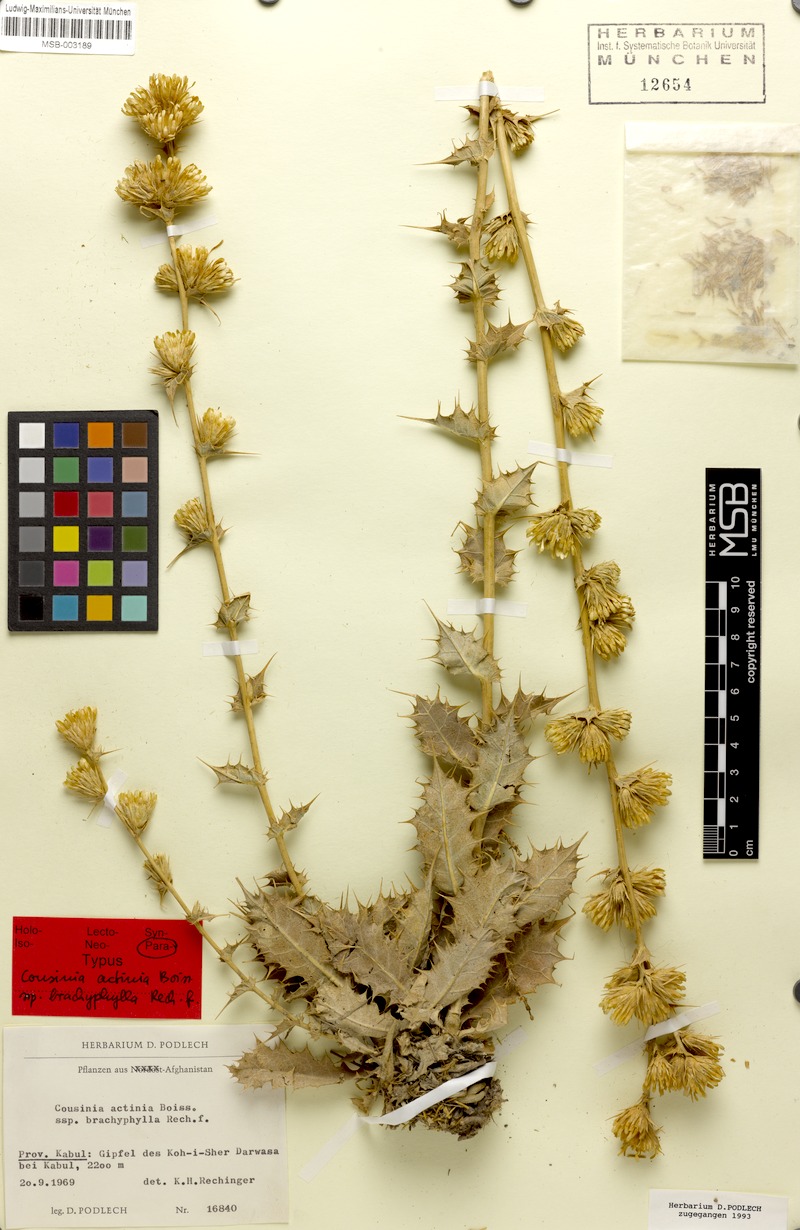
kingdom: Plantae
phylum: Tracheophyta
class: Magnoliopsida
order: Asterales
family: Asteraceae
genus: Cousinia
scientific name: Cousinia actinia
